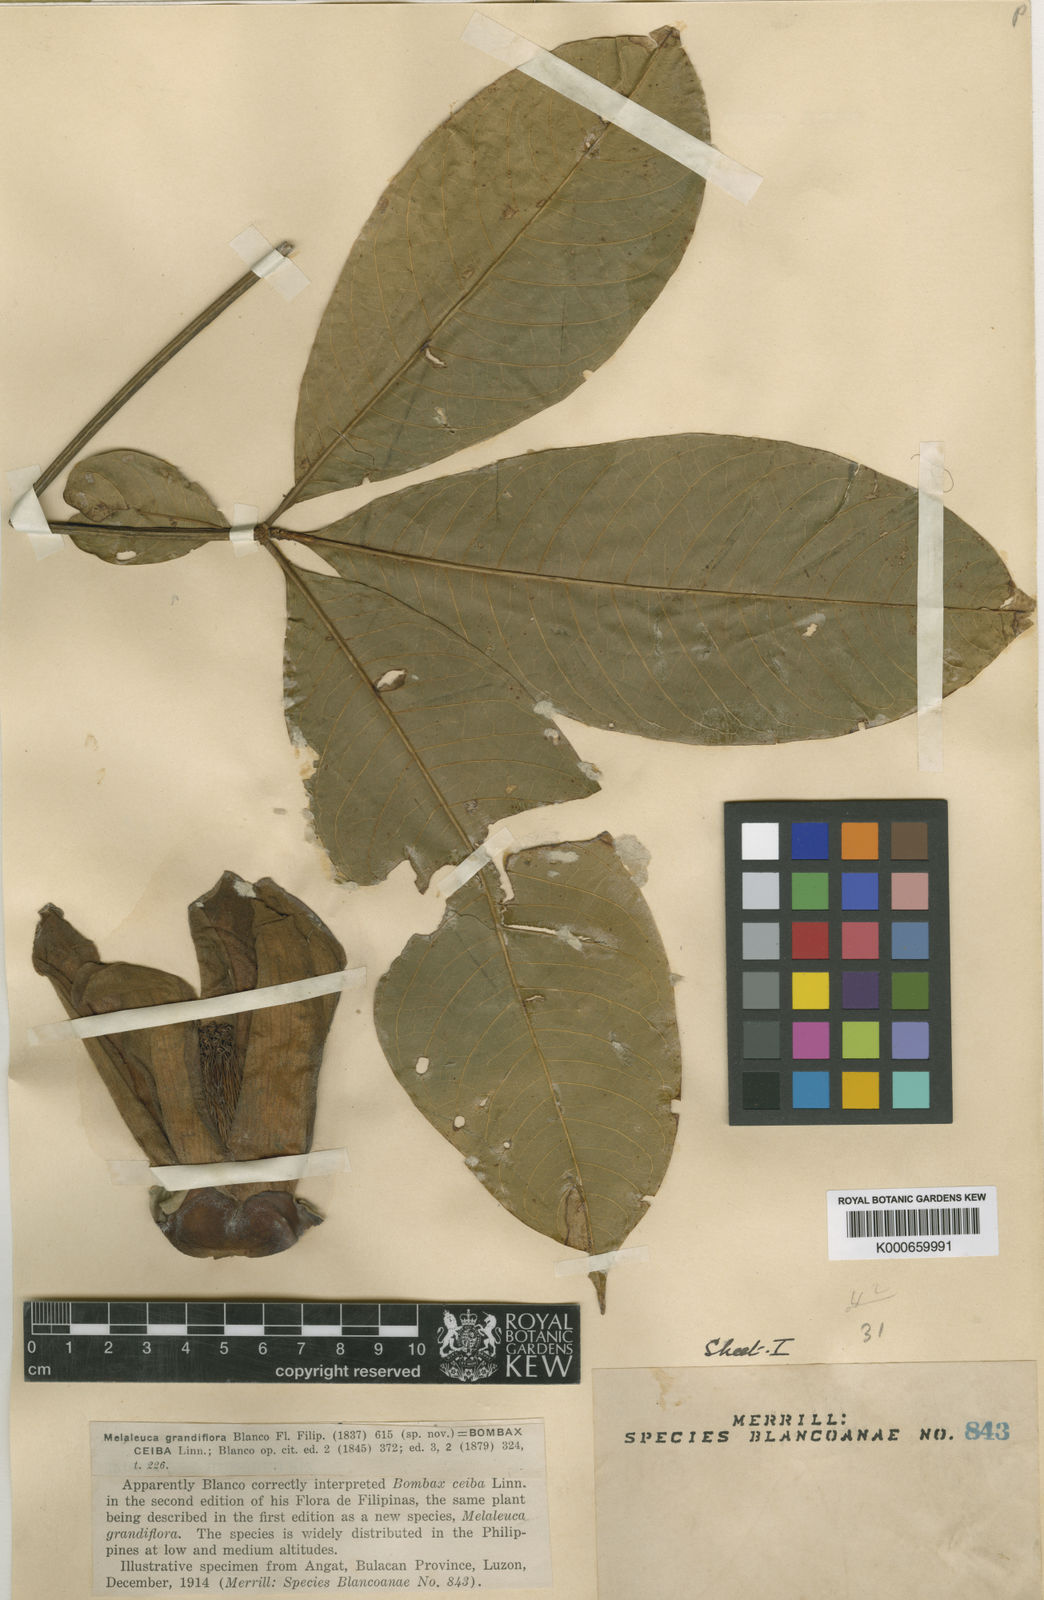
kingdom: Plantae
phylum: Tracheophyta
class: Magnoliopsida
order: Malvales
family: Malvaceae
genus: Bombax
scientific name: Bombax blancoanum
